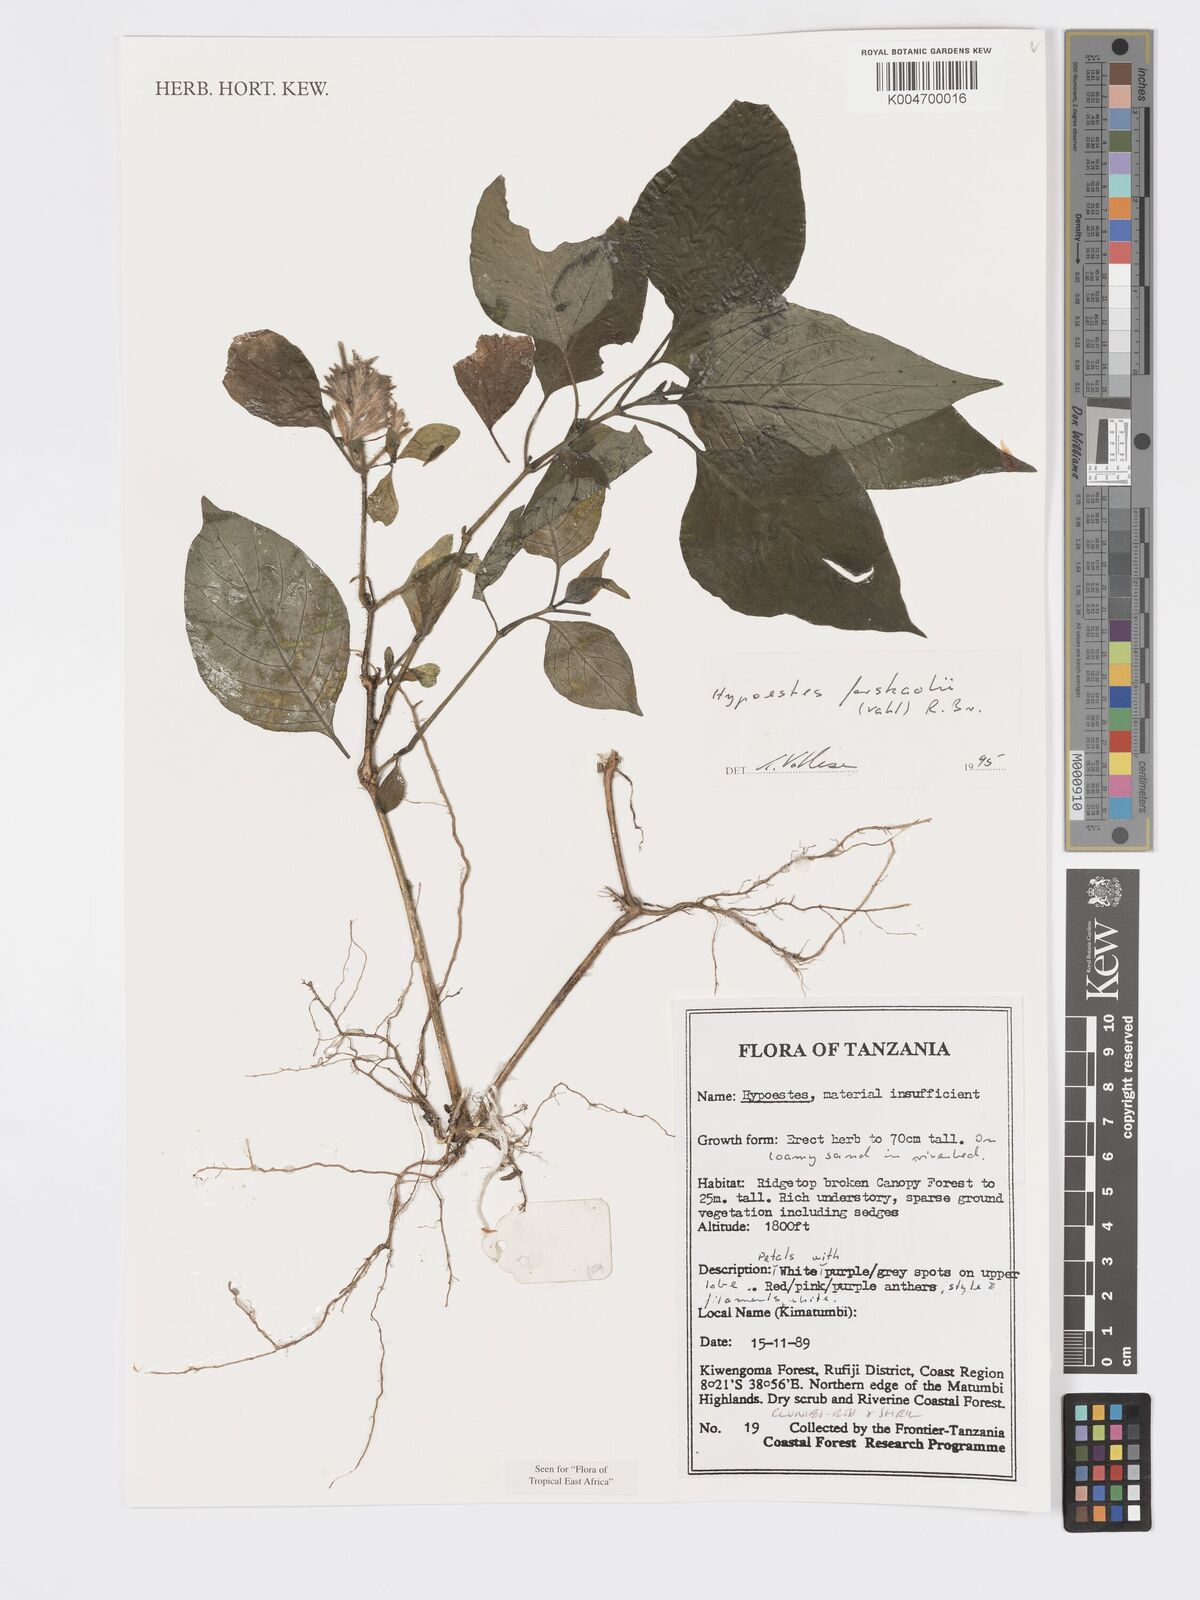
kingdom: Plantae
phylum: Tracheophyta
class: Magnoliopsida
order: Lamiales
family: Acanthaceae
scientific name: Acanthaceae
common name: Acanthaceae
